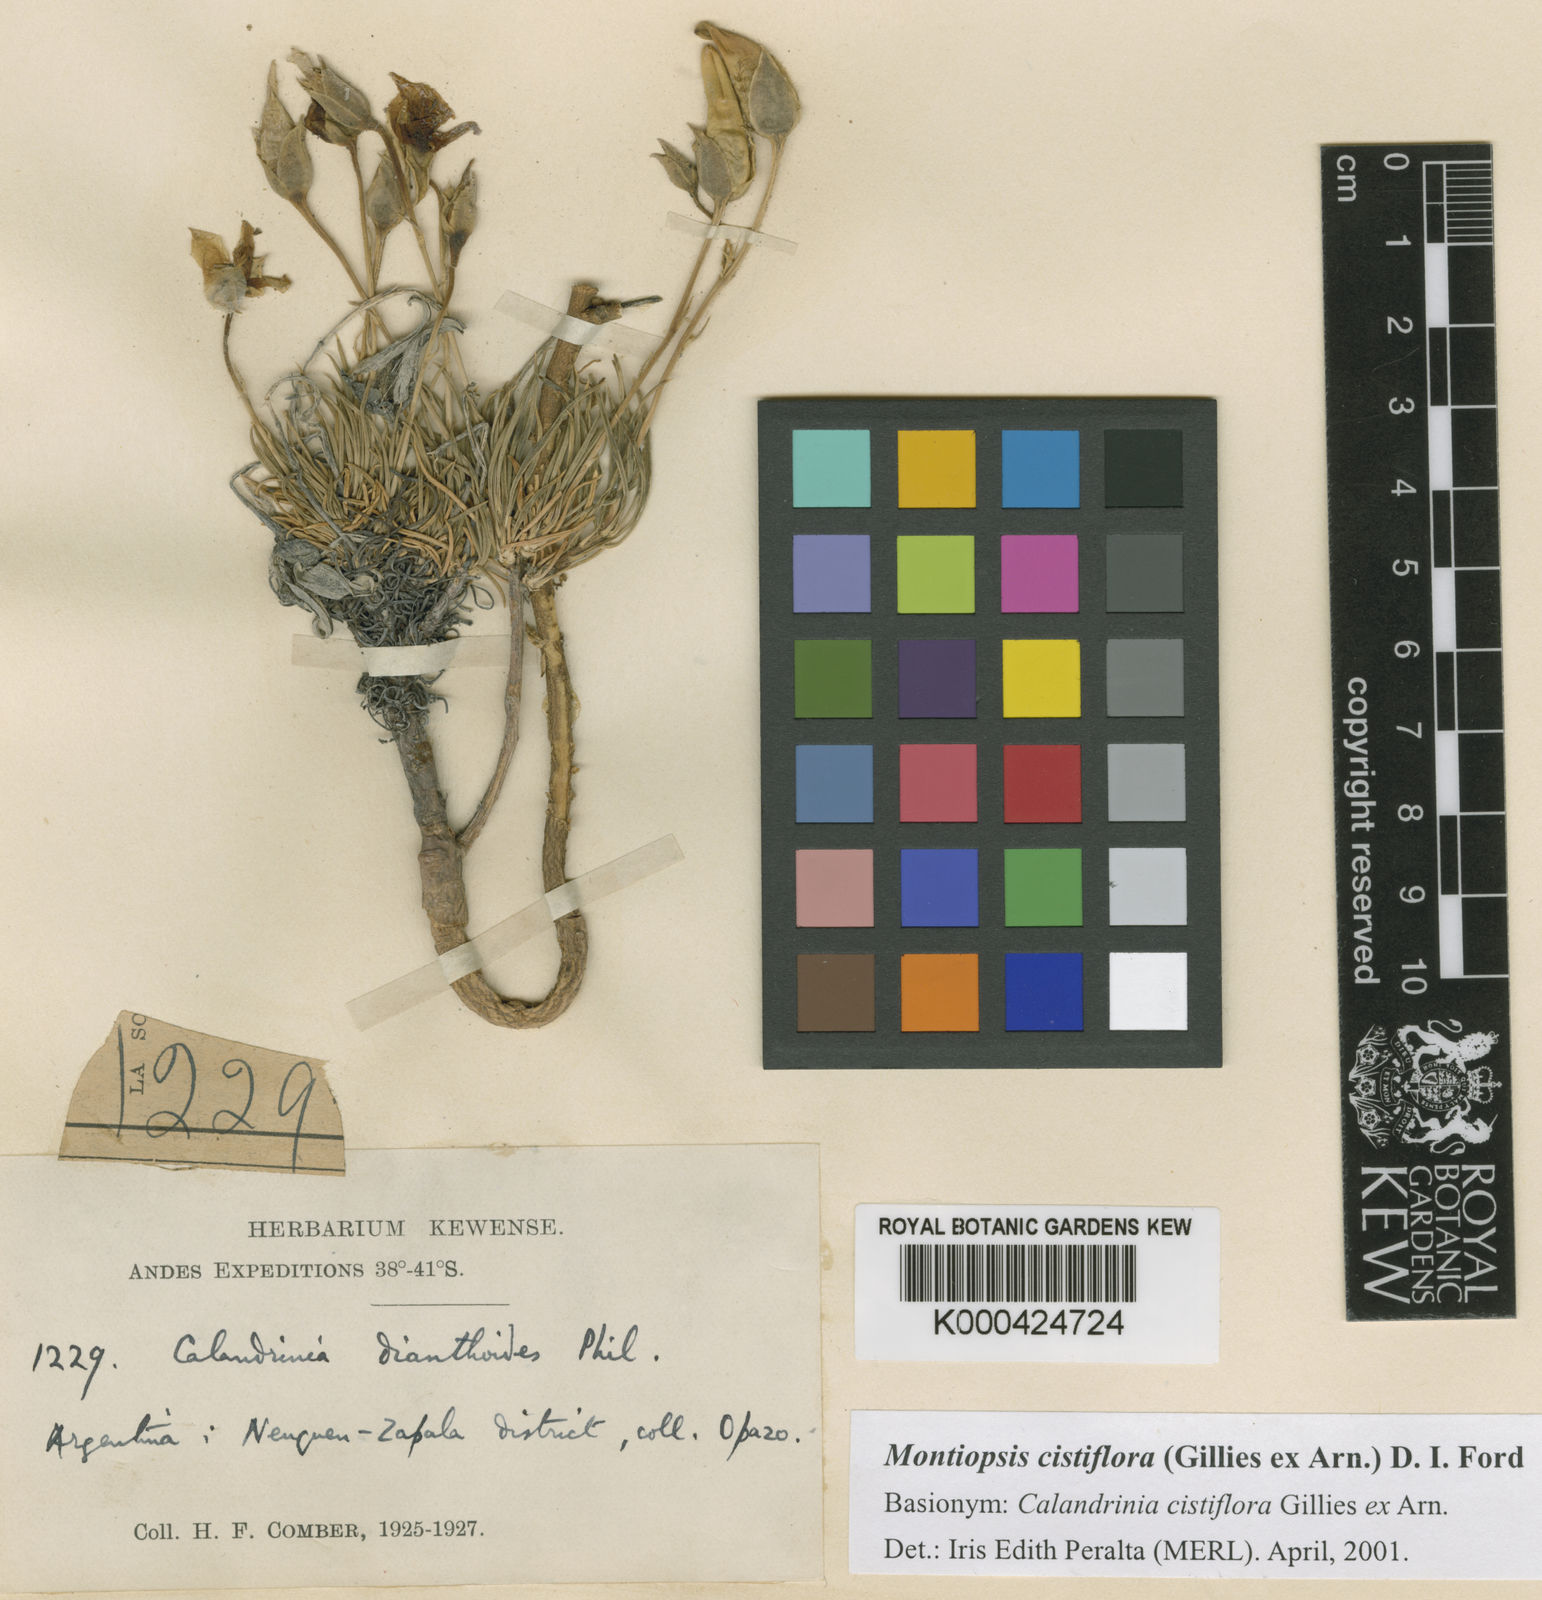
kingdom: Plantae
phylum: Tracheophyta
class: Magnoliopsida
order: Caryophyllales
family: Montiaceae
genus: Montiopsis
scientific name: Montiopsis cistiflora
